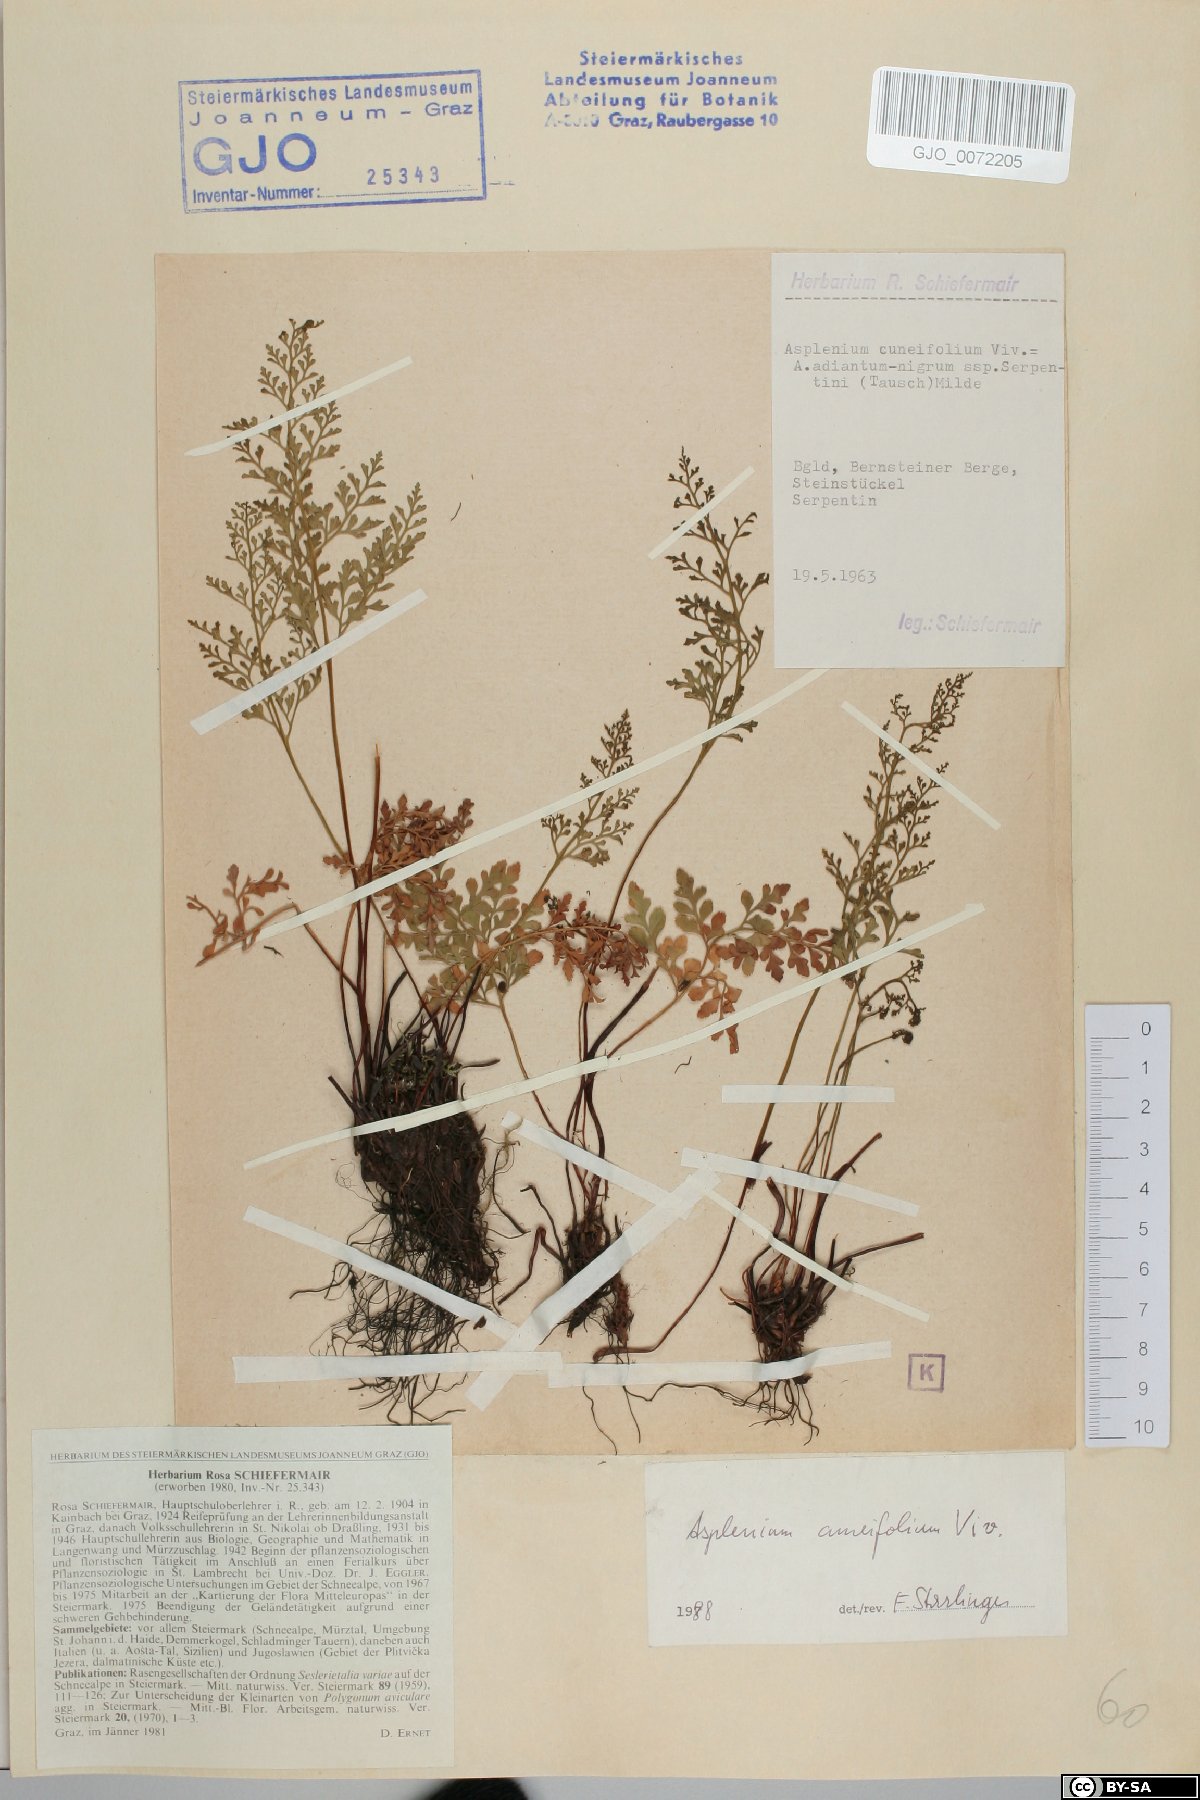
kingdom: Plantae
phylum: Tracheophyta
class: Polypodiopsida
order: Polypodiales
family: Aspleniaceae
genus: Asplenium
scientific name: Asplenium cuneifolium
